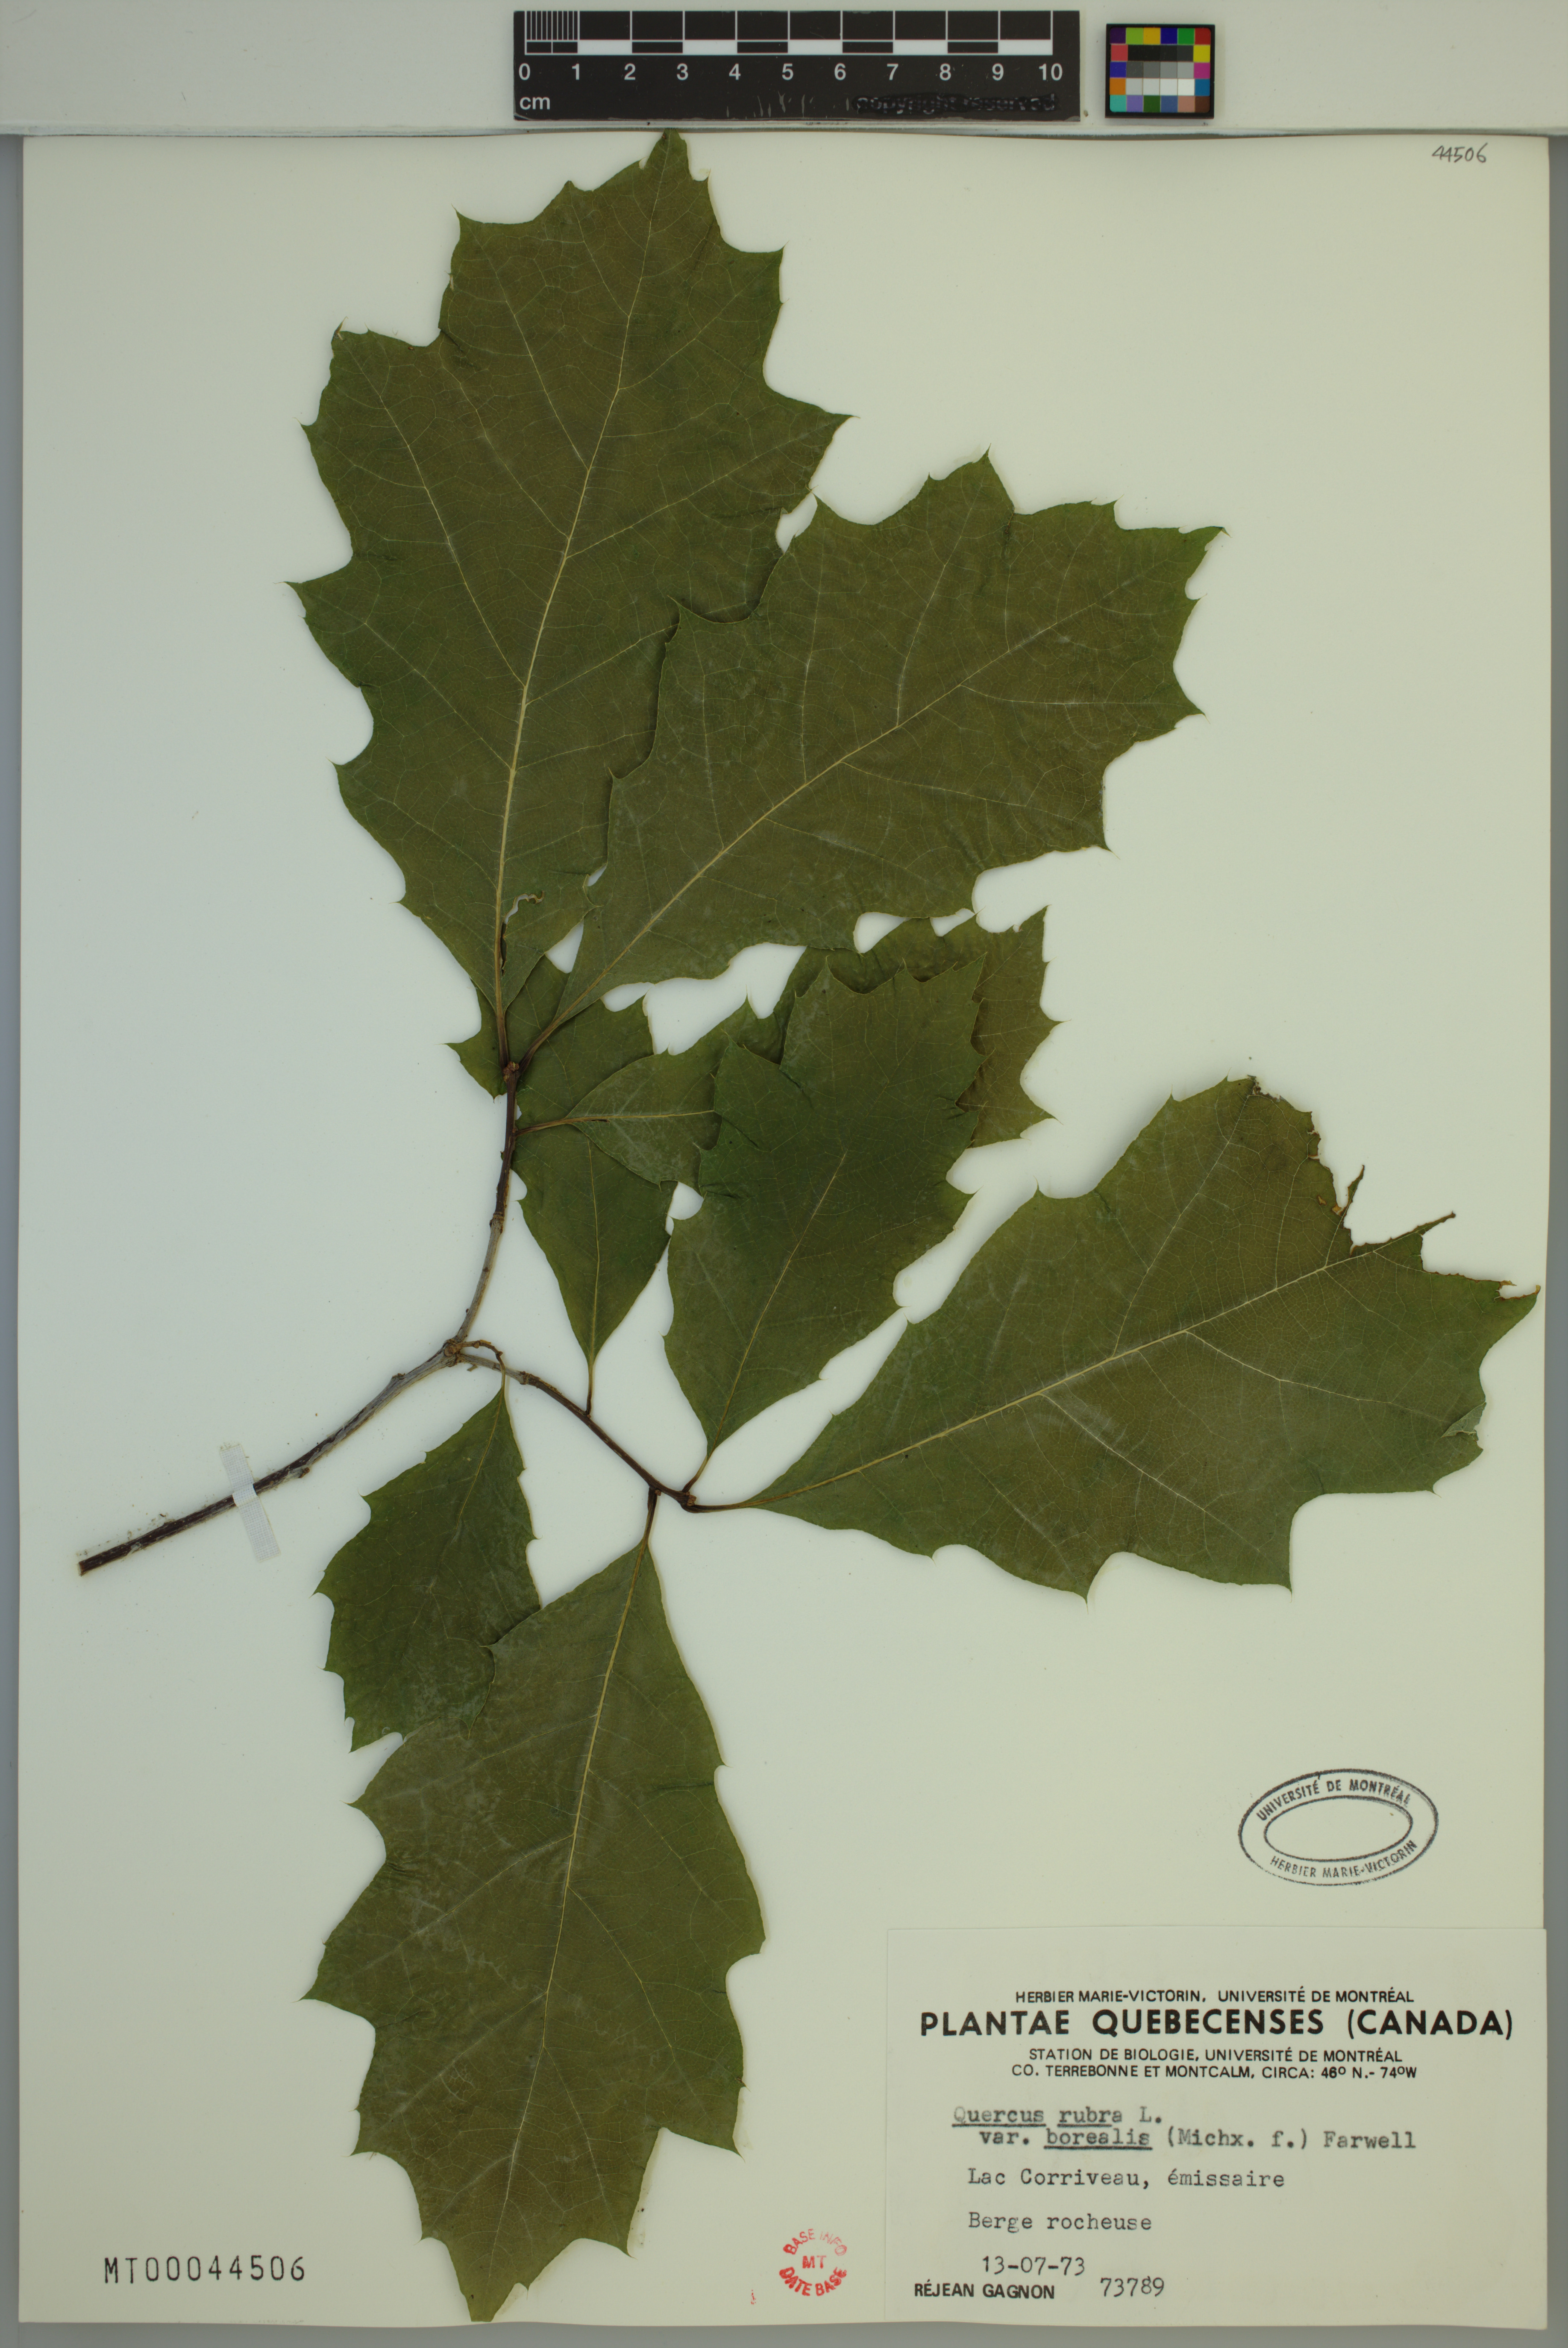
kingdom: Plantae
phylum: Tracheophyta
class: Magnoliopsida
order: Fagales
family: Fagaceae
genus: Quercus
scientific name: Quercus rubra
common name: Red oak
